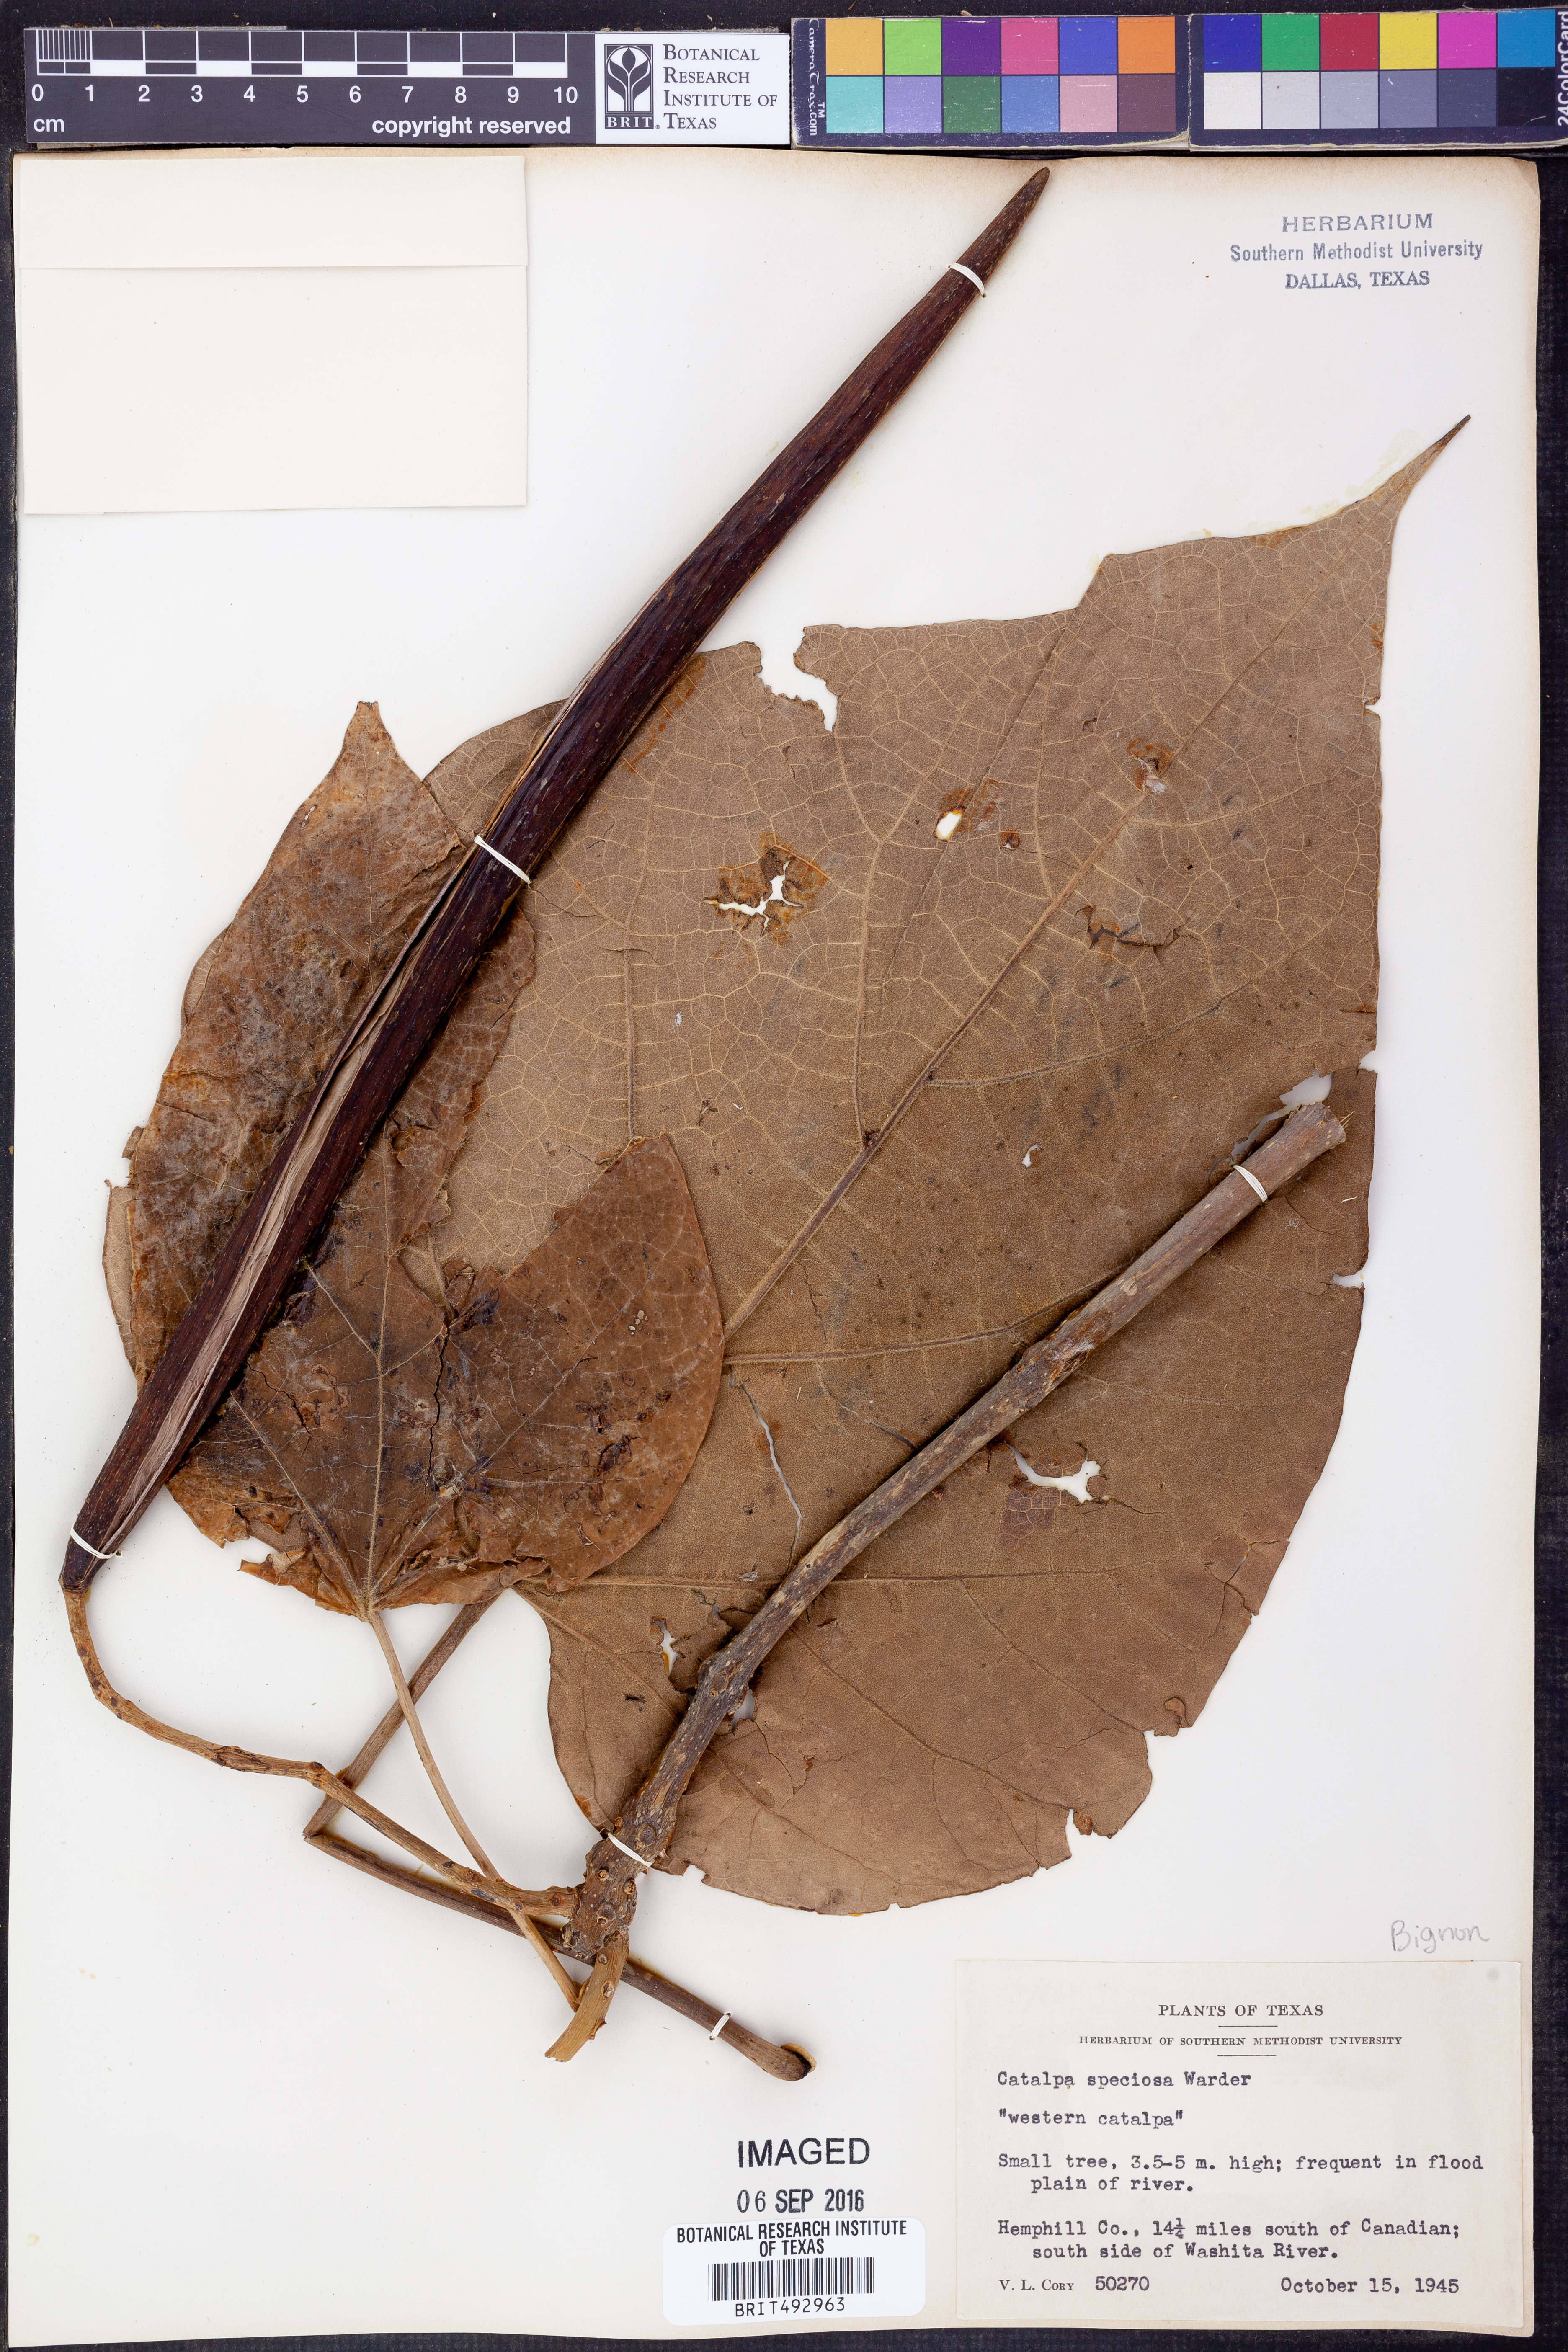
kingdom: Plantae
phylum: Tracheophyta
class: Magnoliopsida
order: Lamiales
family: Bignoniaceae
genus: Catalpa
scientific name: Catalpa speciosa
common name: Northern catalpa
